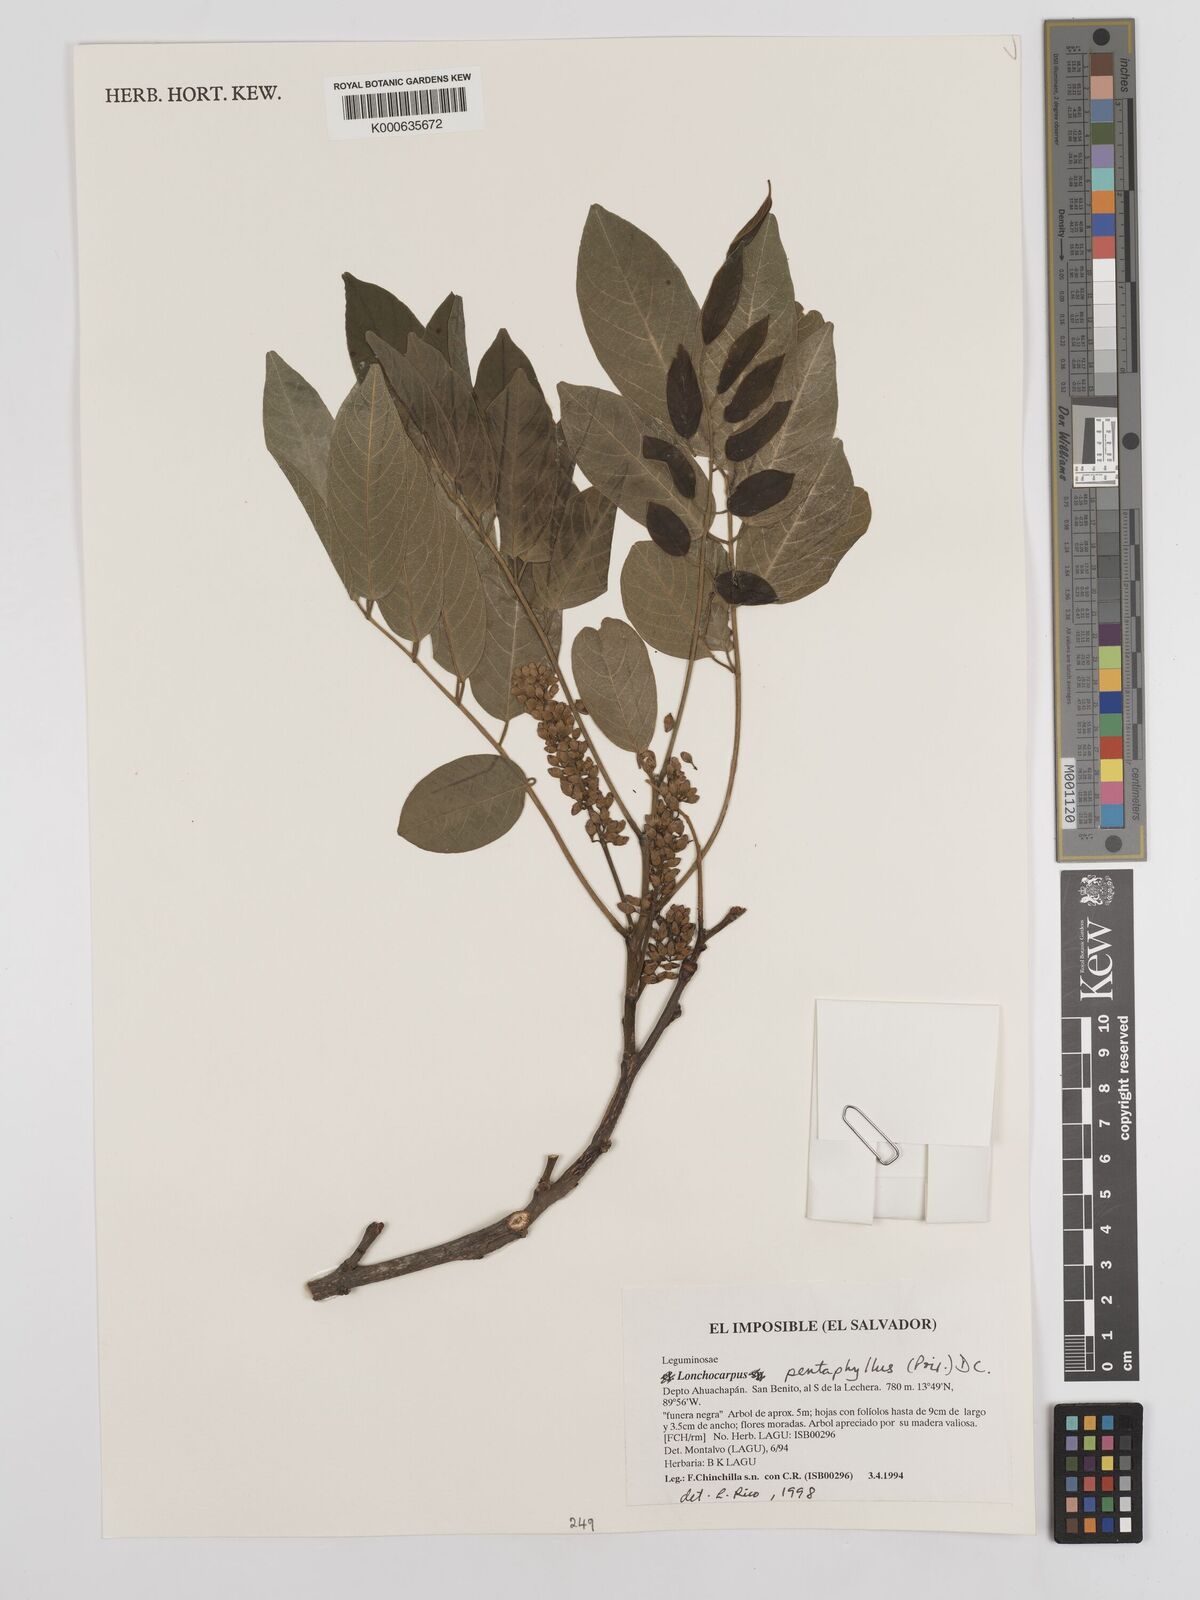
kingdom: Plantae
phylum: Tracheophyta
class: Magnoliopsida
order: Fabales
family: Fabaceae
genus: Lonchocarpus
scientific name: Lonchocarpus
